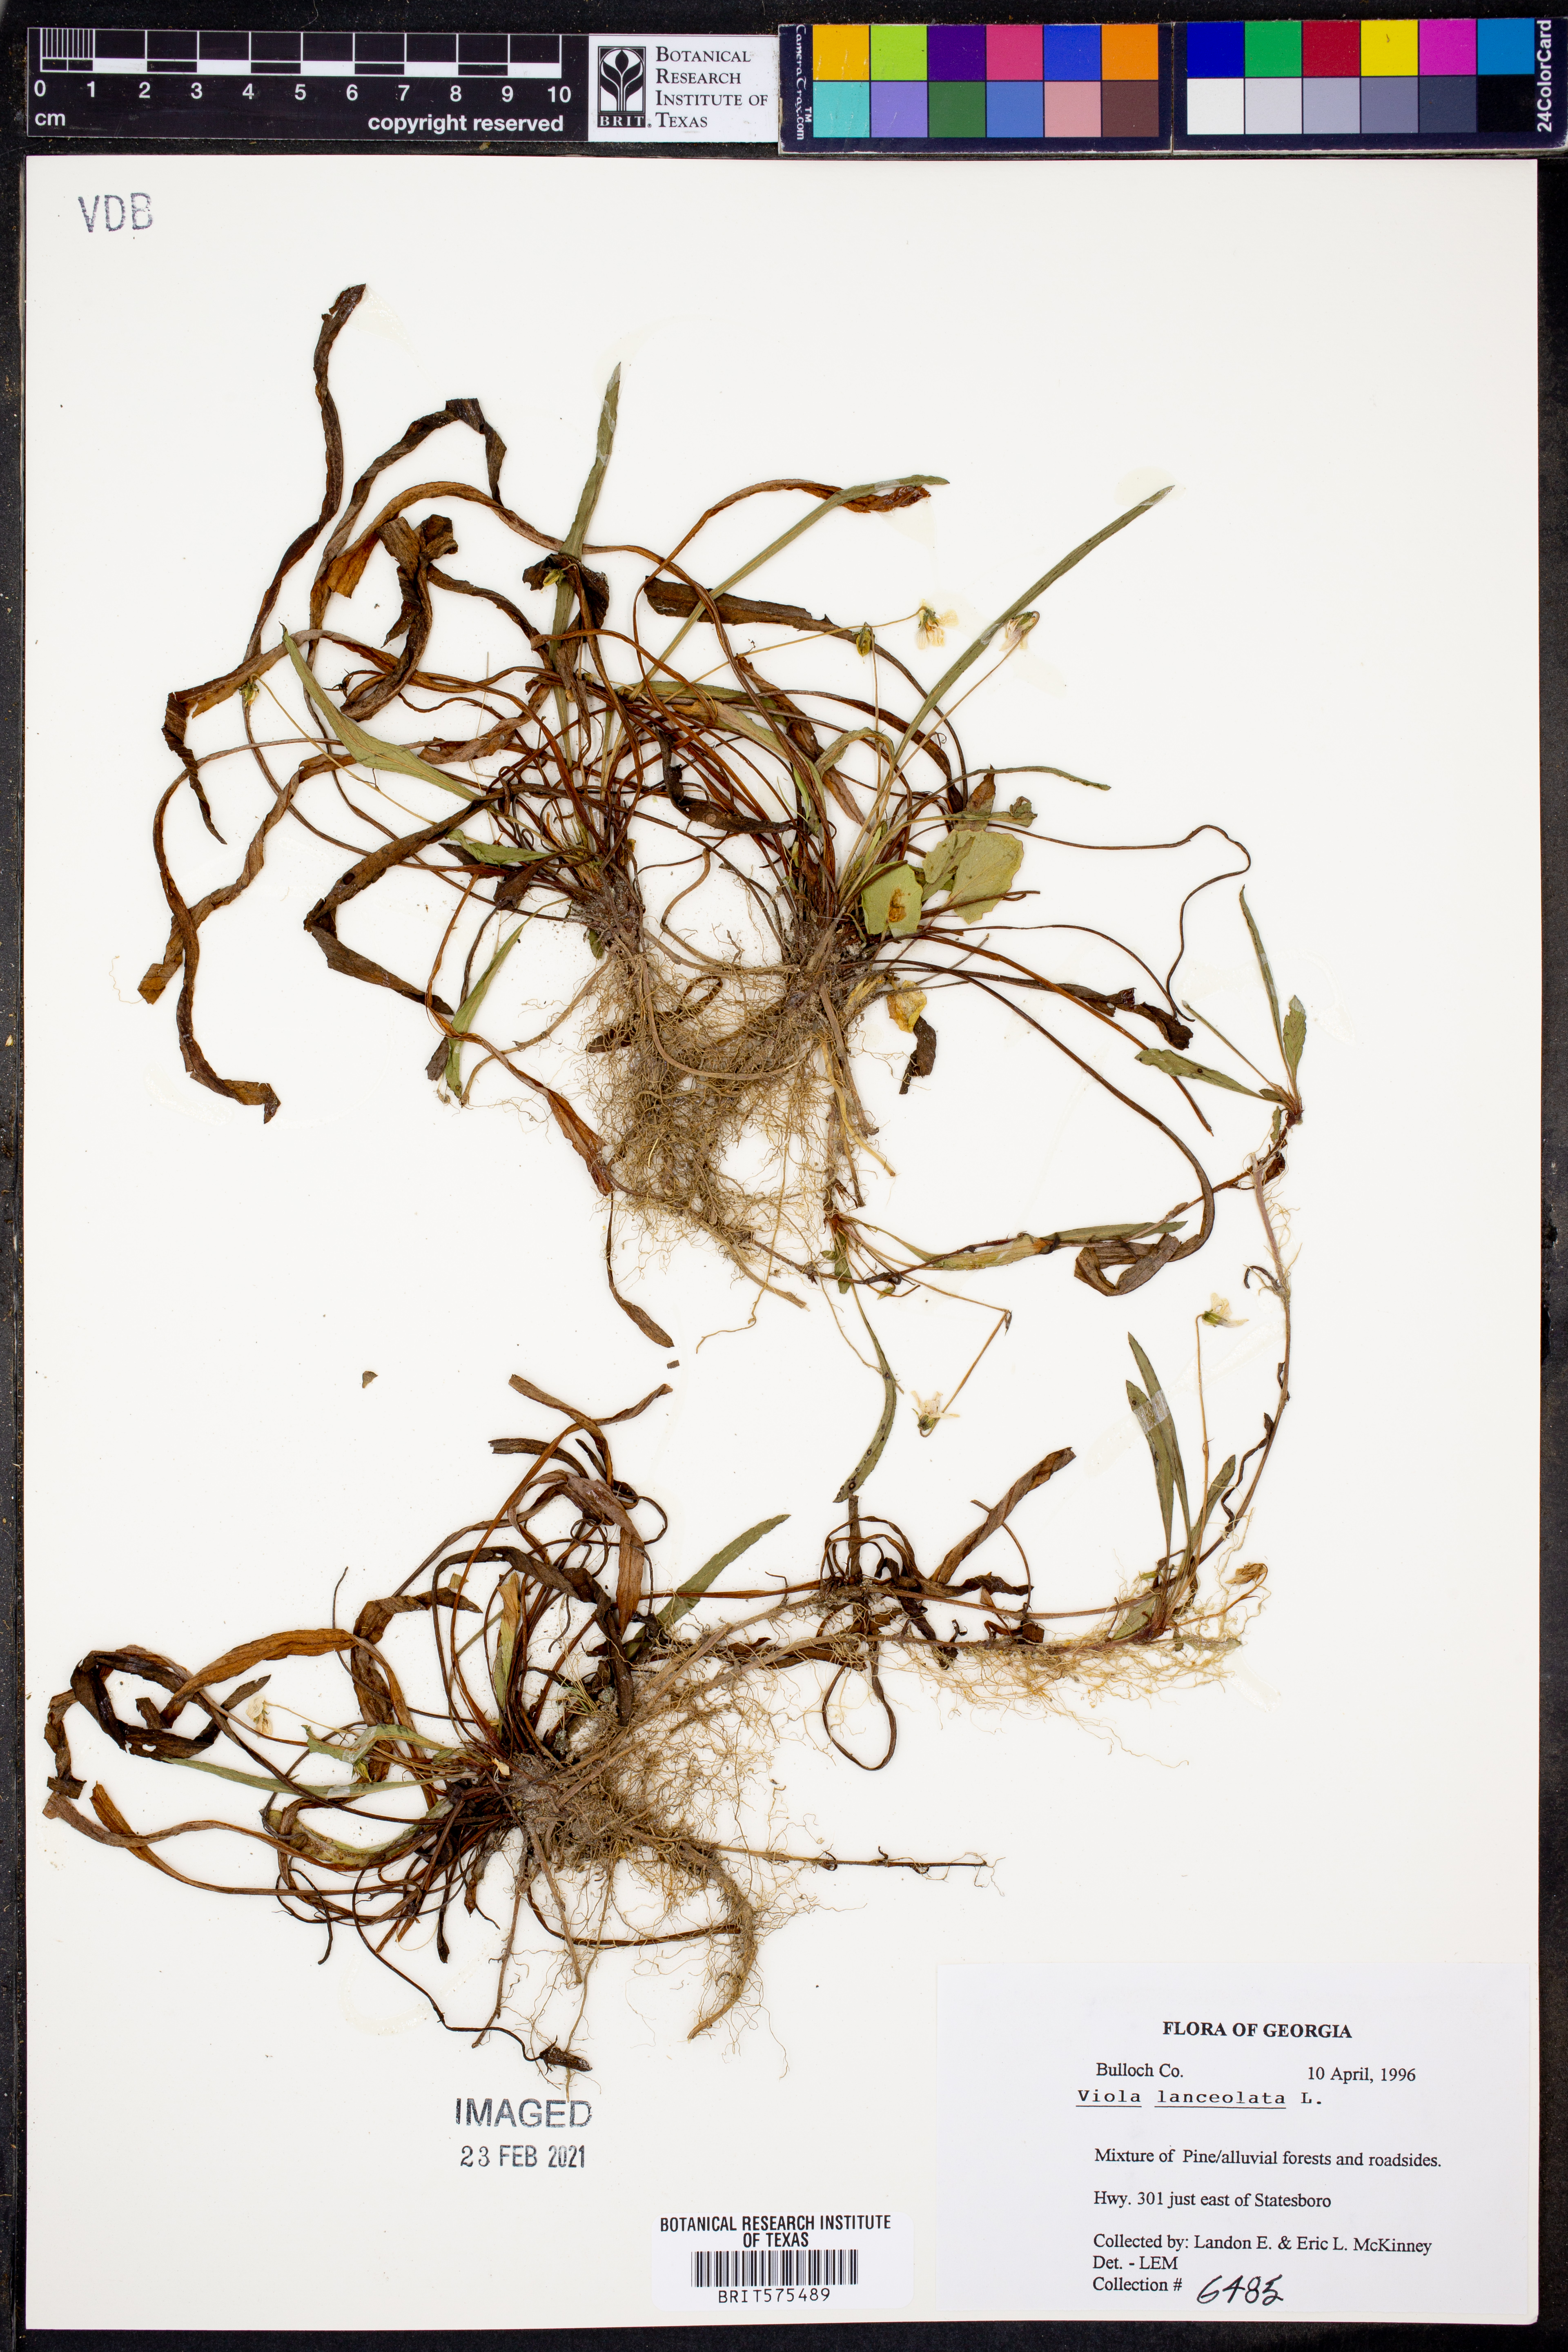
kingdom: Plantae
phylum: Tracheophyta
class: Magnoliopsida
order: Malpighiales
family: Violaceae
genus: Viola
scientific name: Viola lanceolata
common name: Bog white violet
